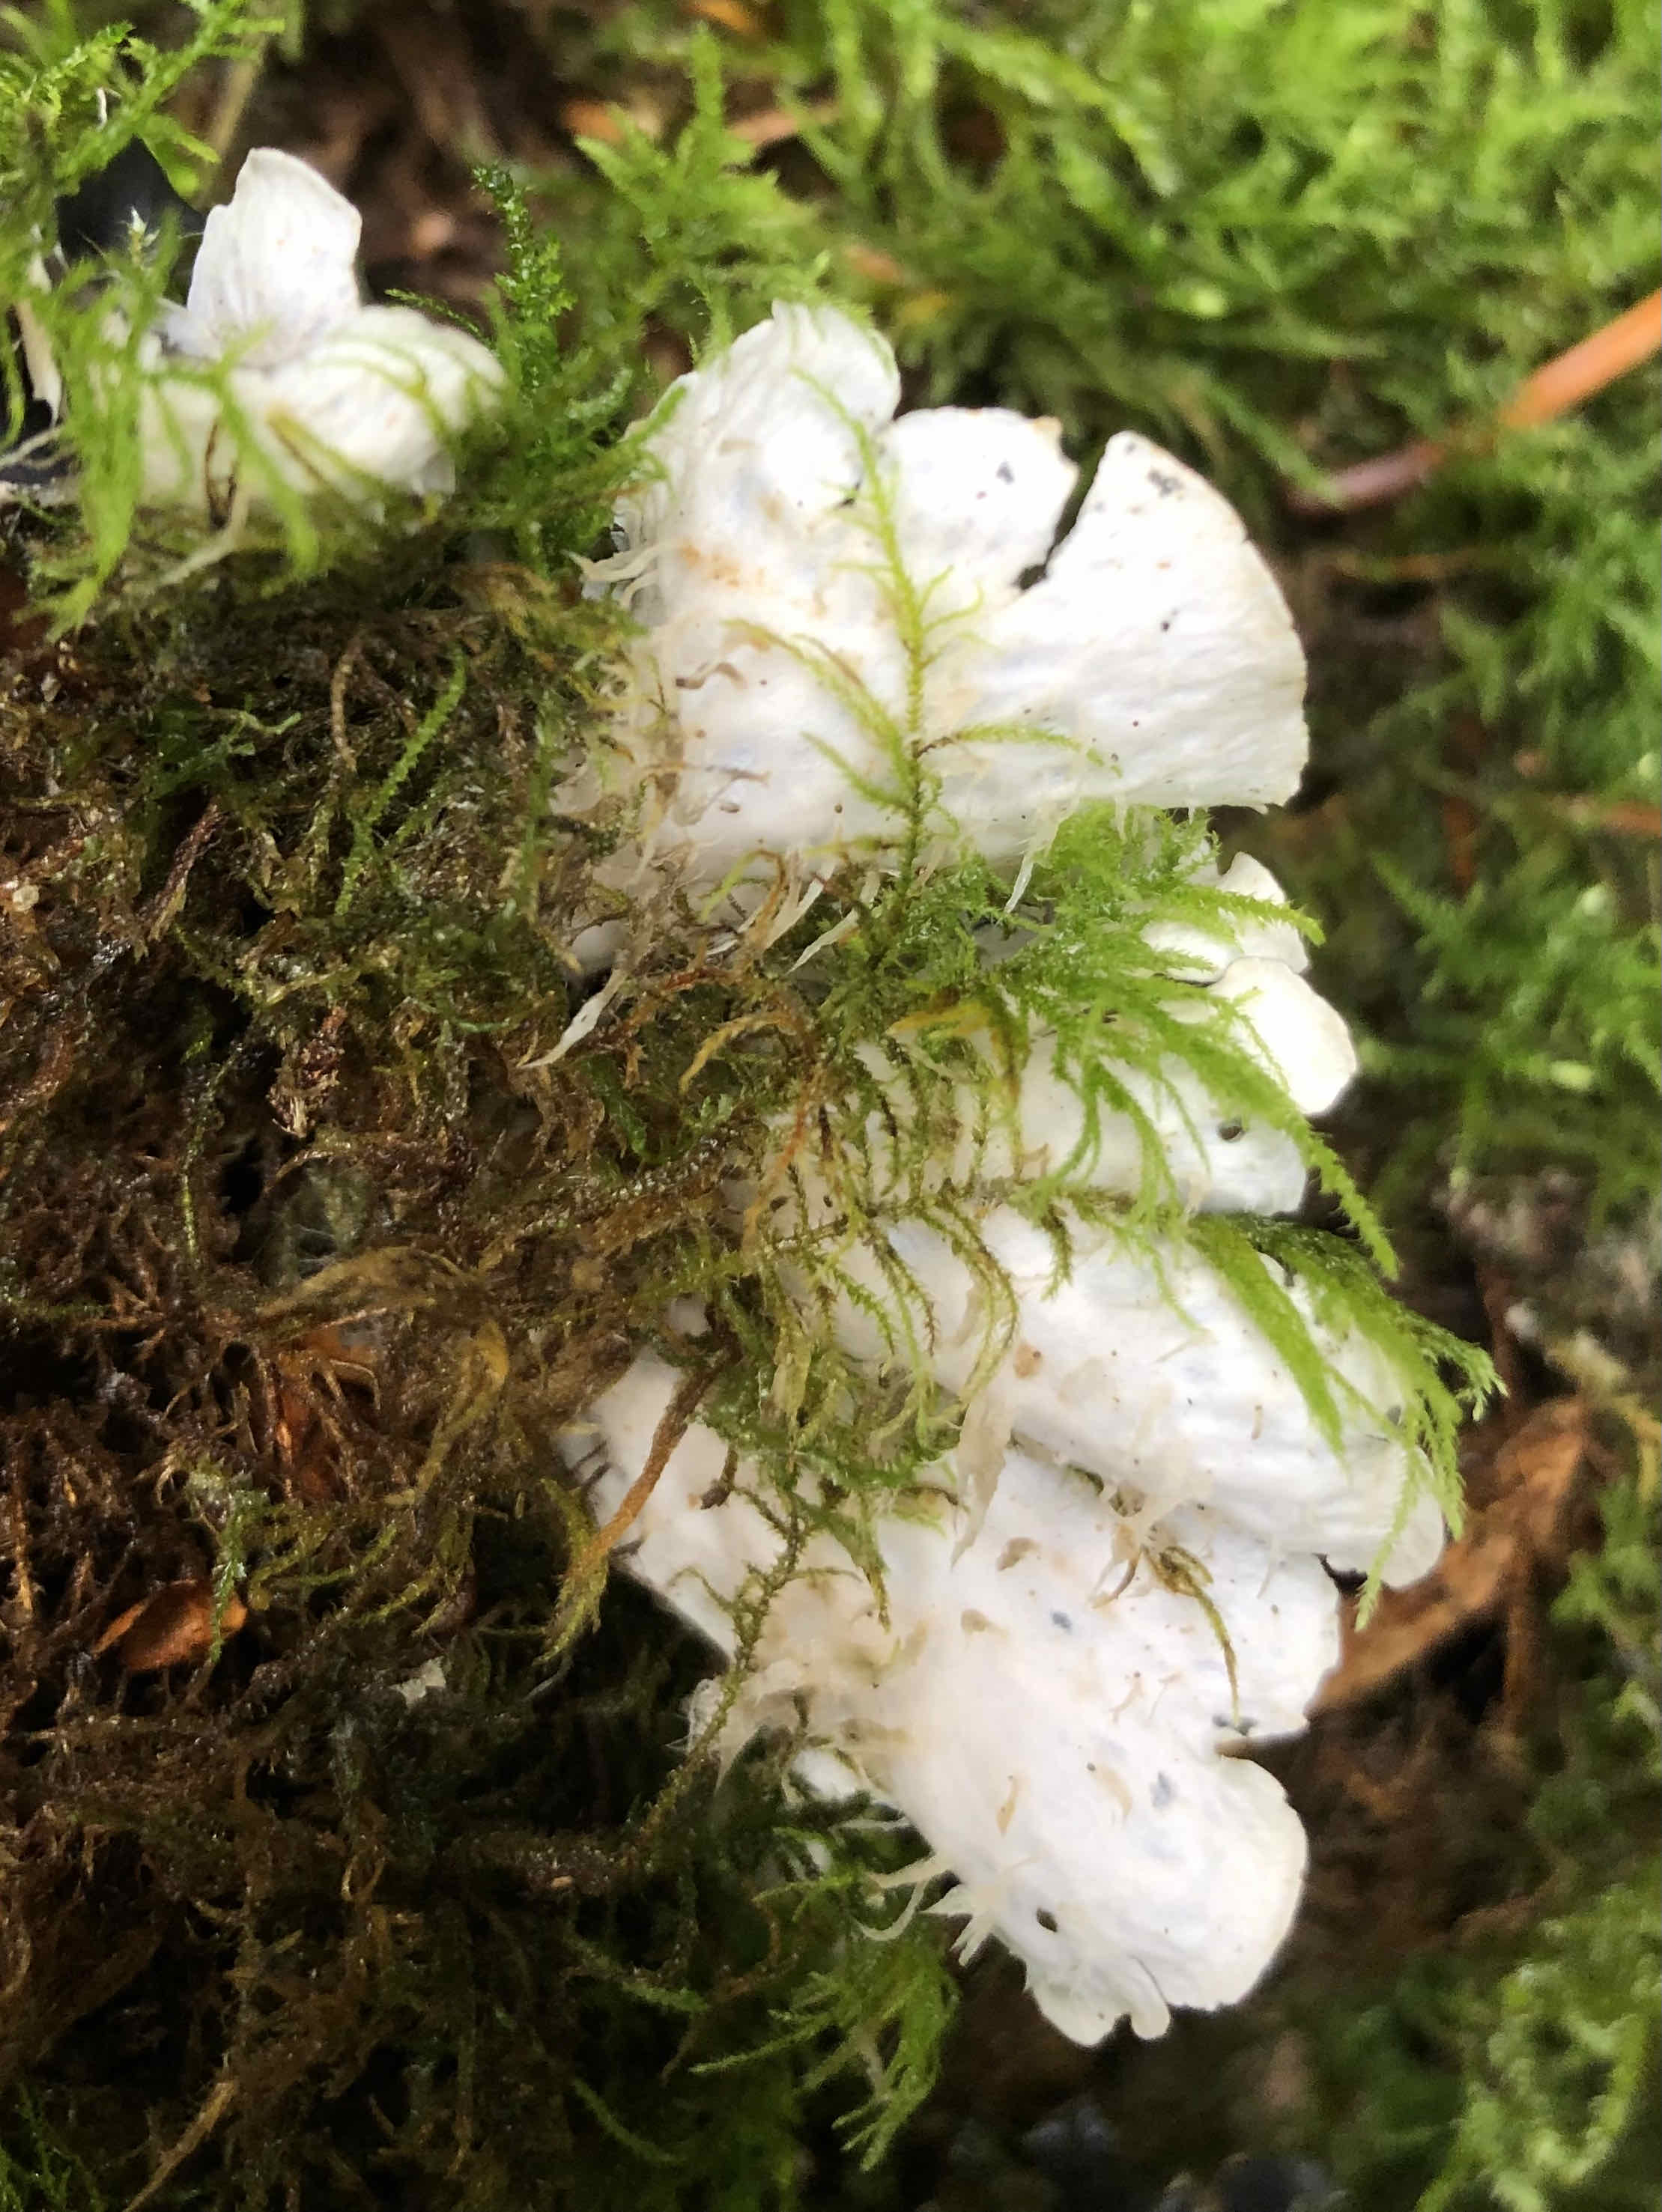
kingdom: Fungi
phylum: Ascomycota
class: Lecanoromycetes
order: Peltigerales
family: Peltigeraceae
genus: Peltigera
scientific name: Peltigera hymenina
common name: hinde-skjoldlav
